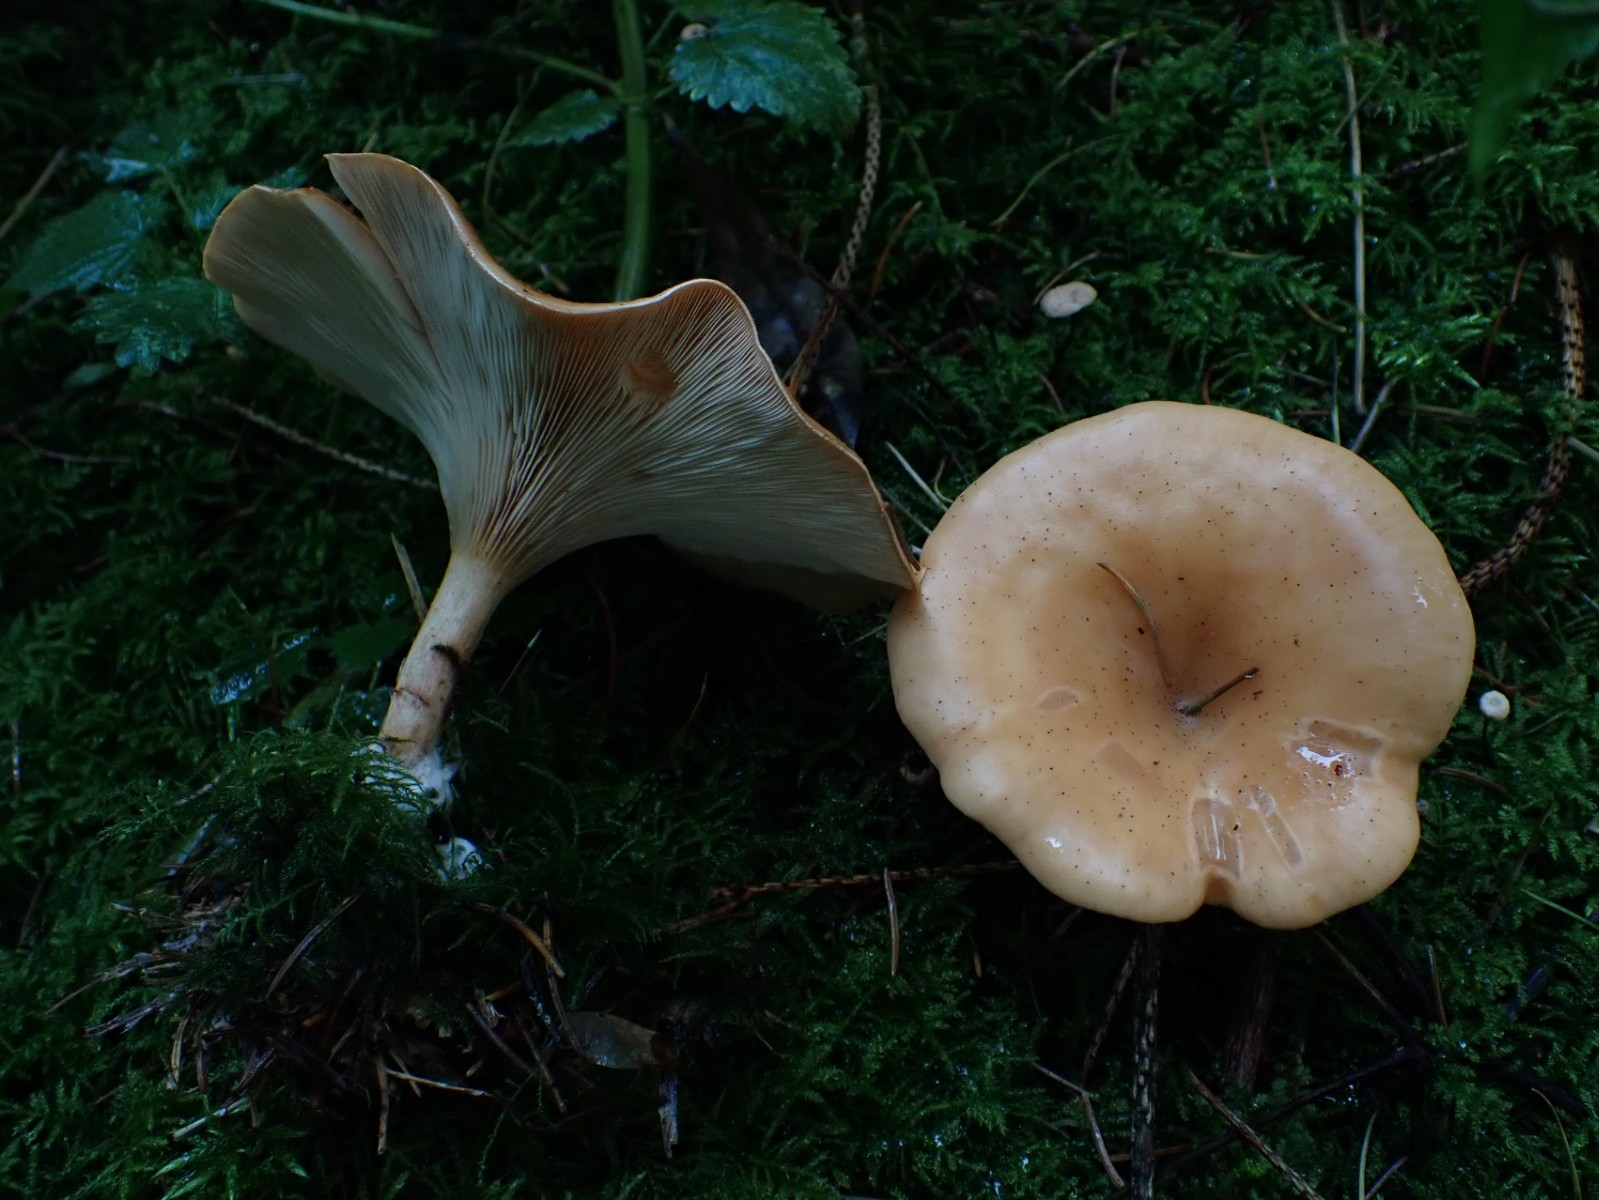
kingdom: Fungi
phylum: Basidiomycota
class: Agaricomycetes
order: Agaricales
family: Tricholomataceae
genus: Paralepista
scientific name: Paralepista flaccida
